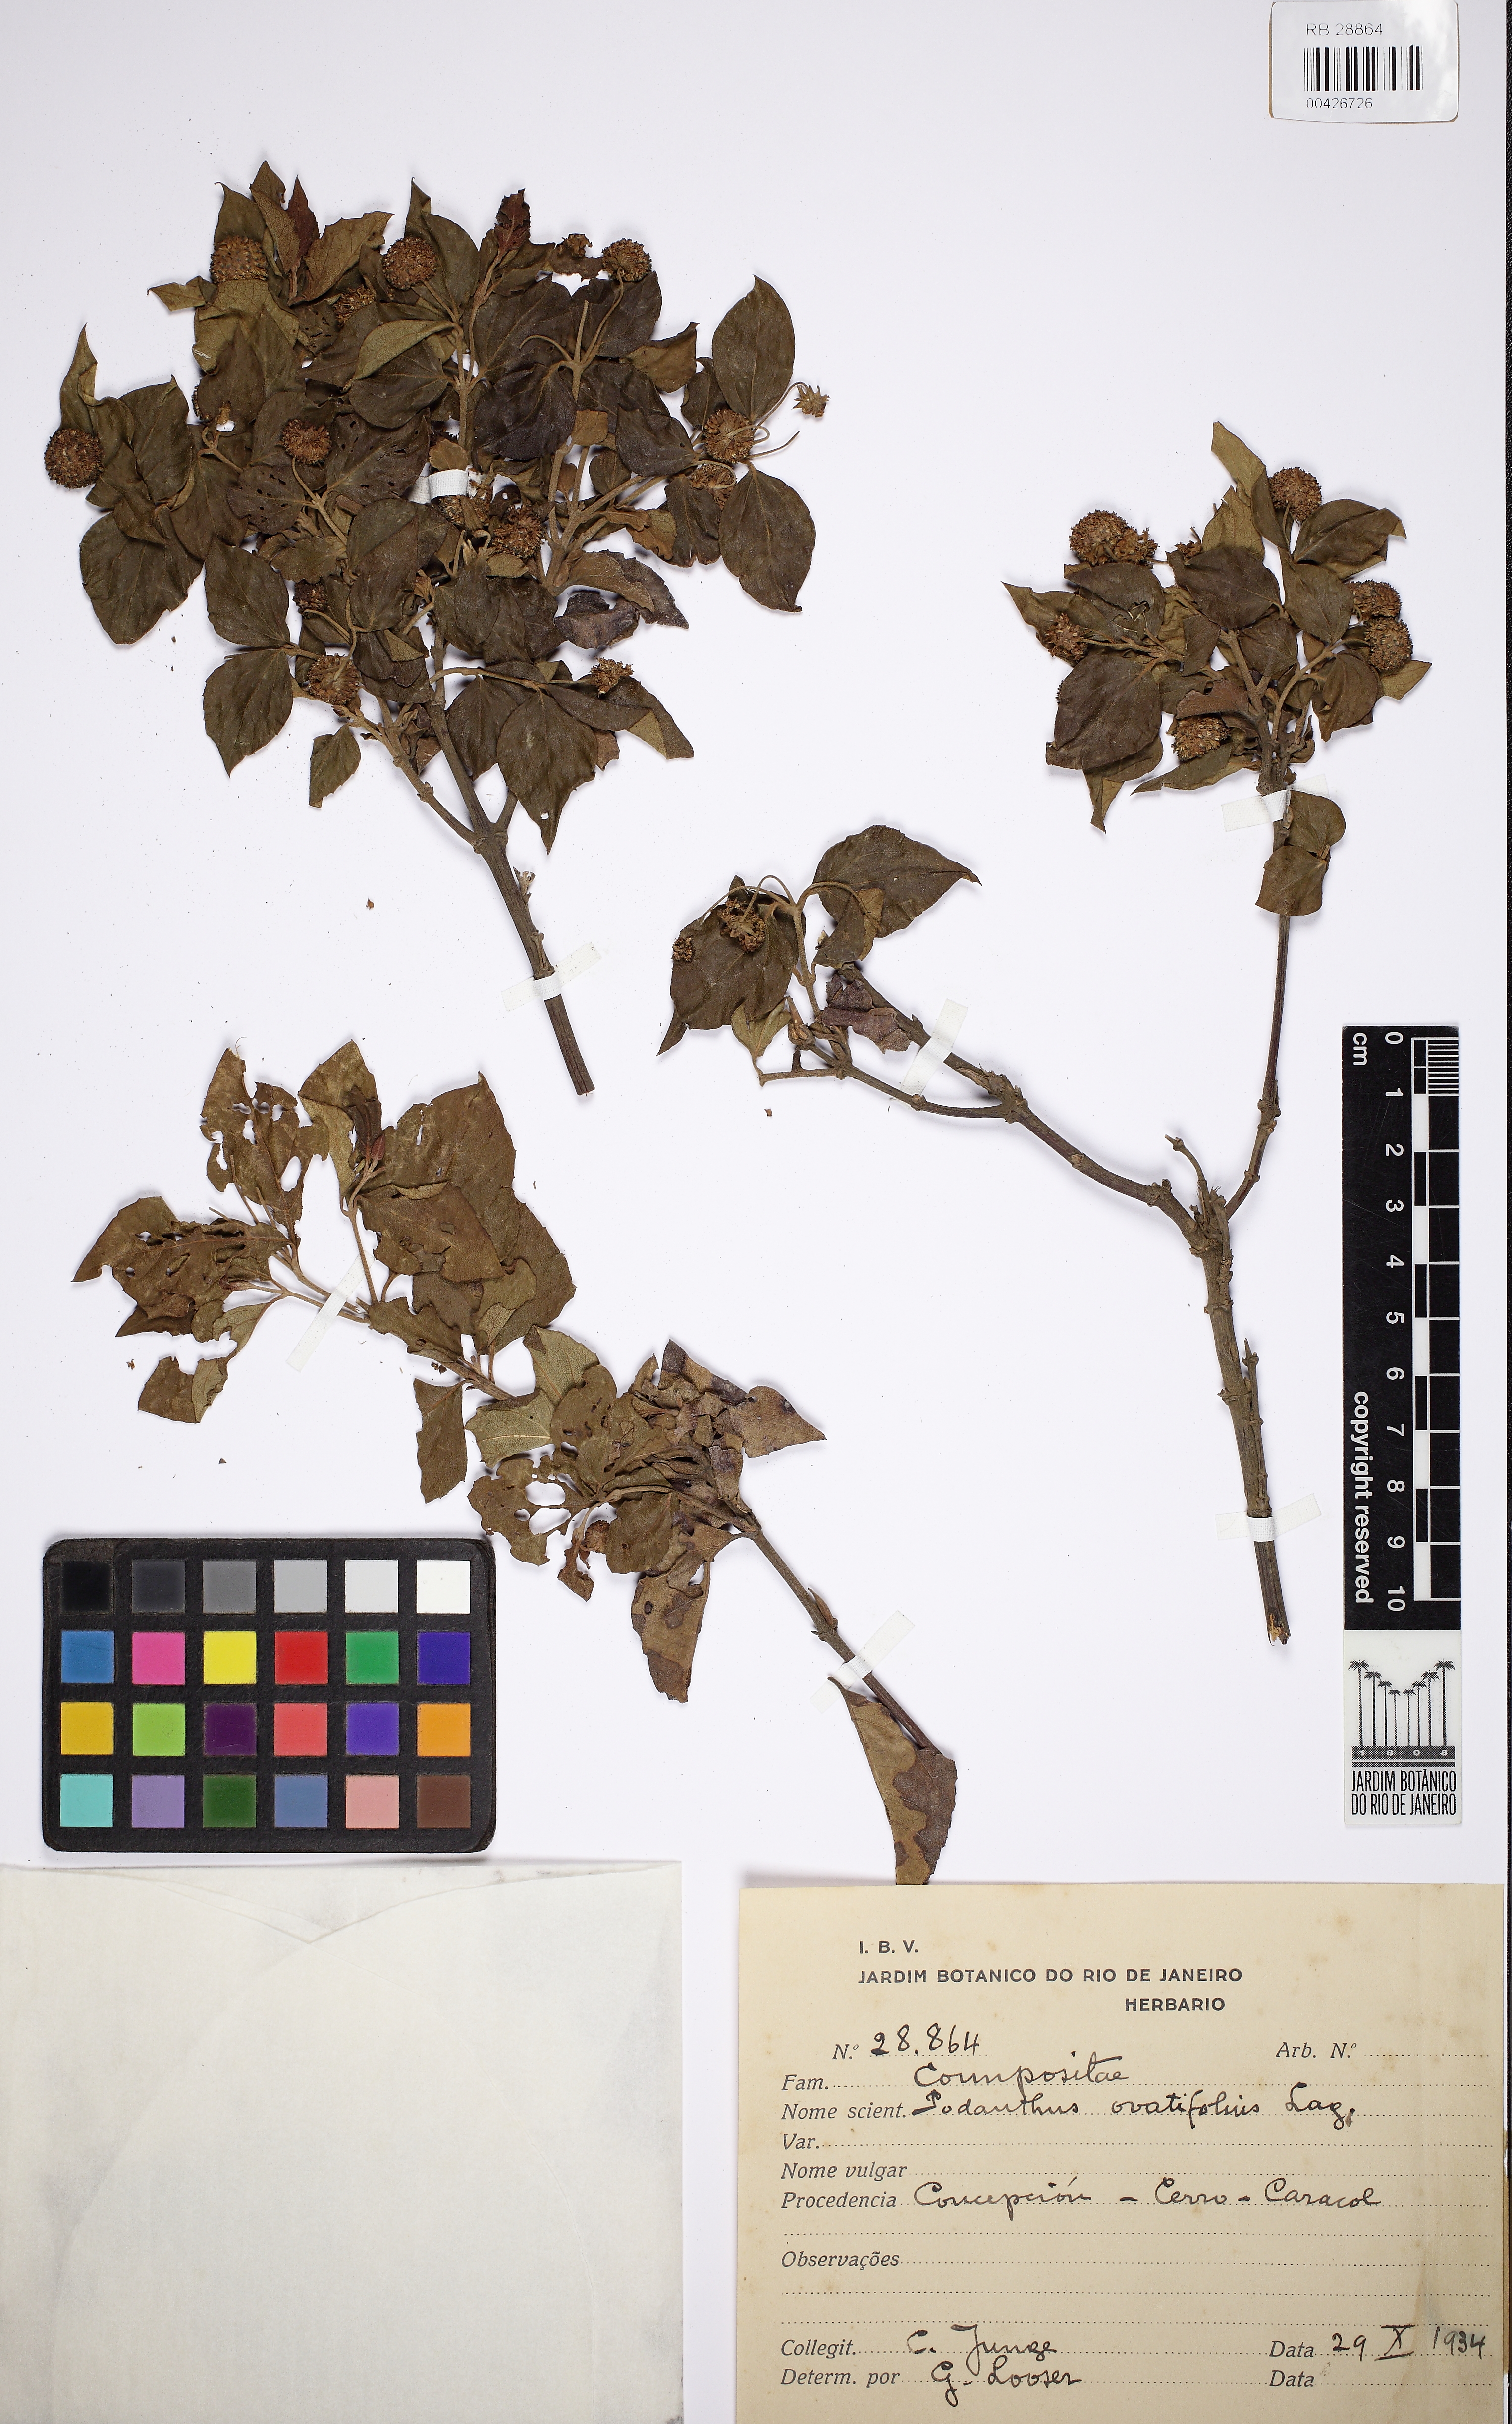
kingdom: Plantae
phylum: Tracheophyta
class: Magnoliopsida
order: Asterales
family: Asteraceae
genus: Podanthus
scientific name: Podanthus ovatifolius
